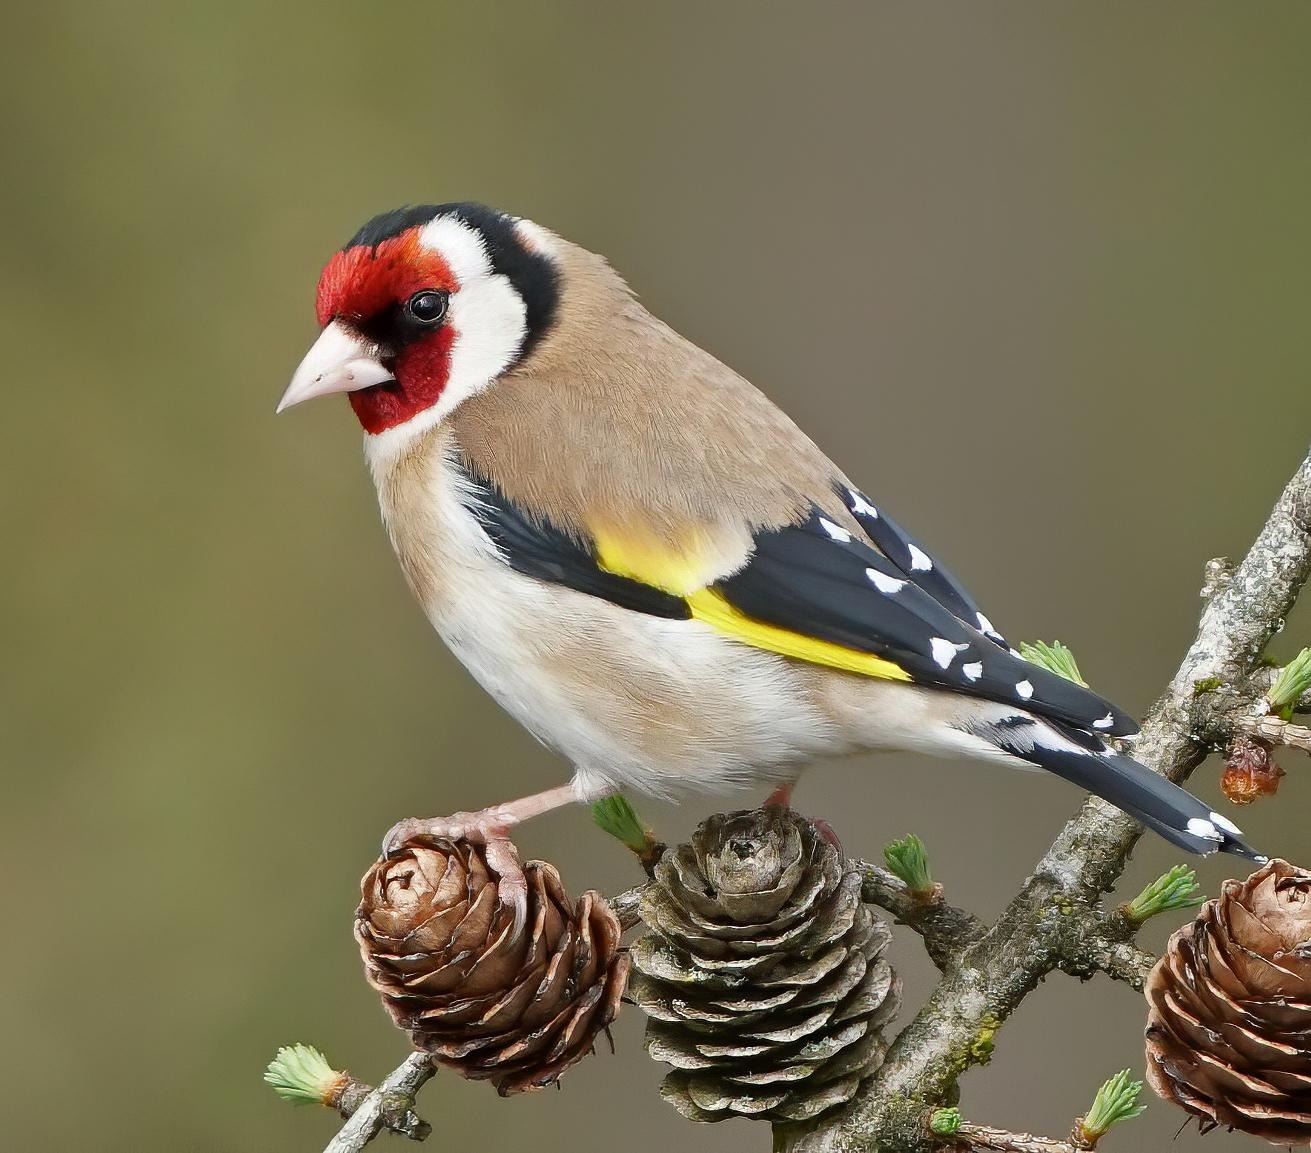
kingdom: Animalia
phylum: Chordata
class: Aves
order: Passeriformes
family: Fringillidae
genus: Carduelis
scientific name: Carduelis carduelis
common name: Stillits
